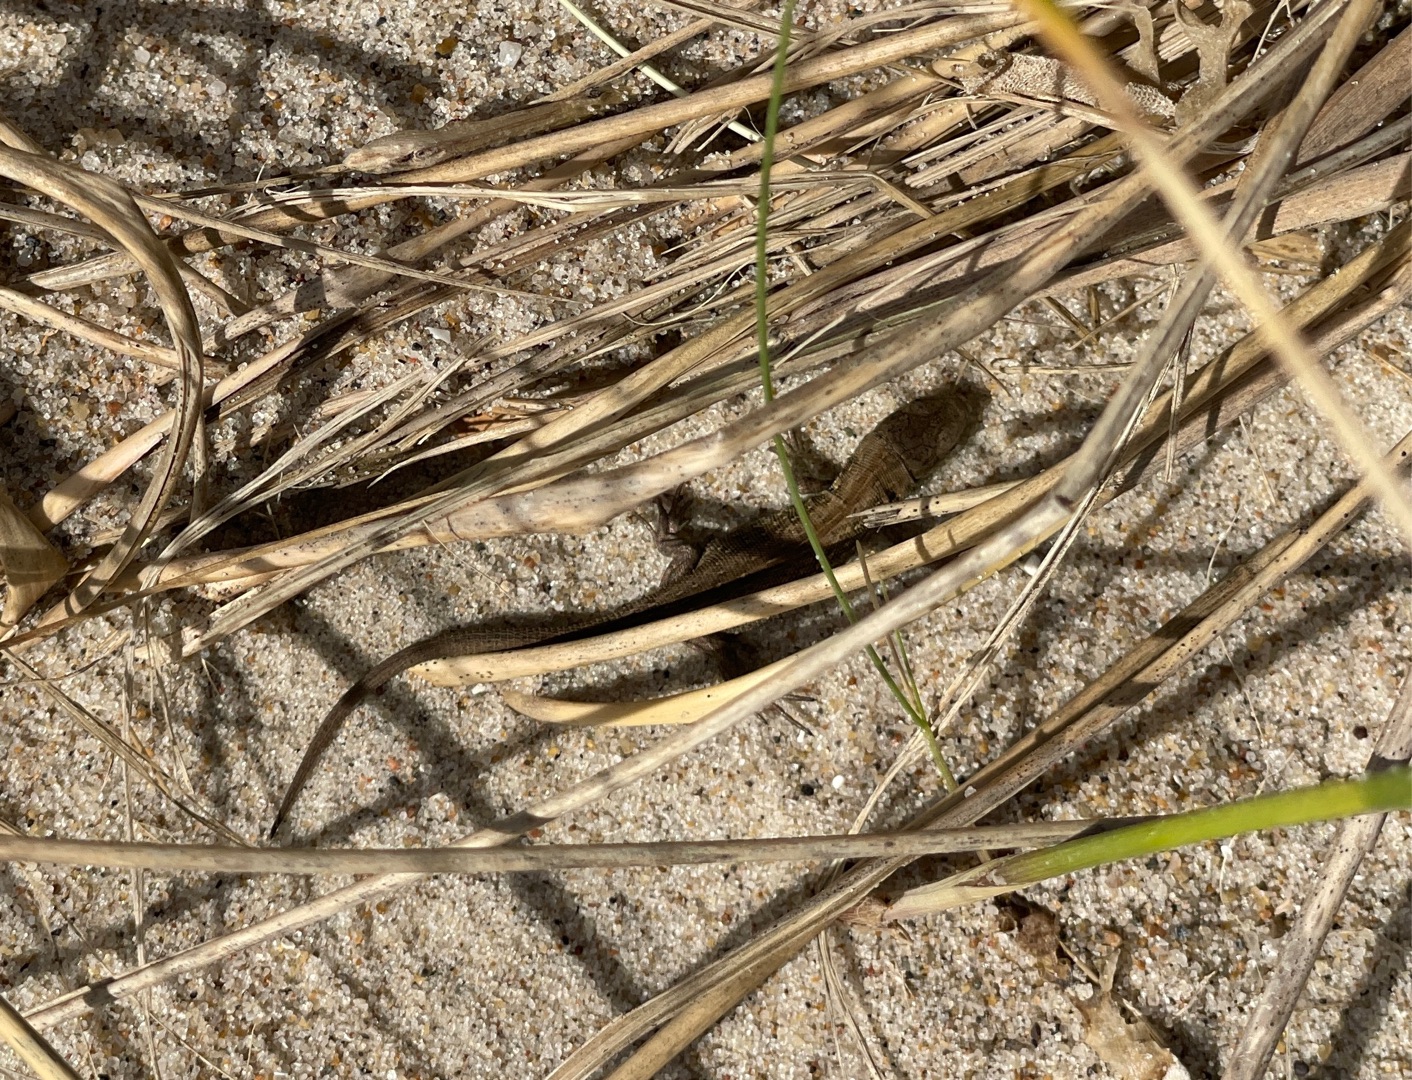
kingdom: Animalia
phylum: Chordata
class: Squamata
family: Lacertidae
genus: Lacerta
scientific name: Lacerta agilis
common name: Markfirben
